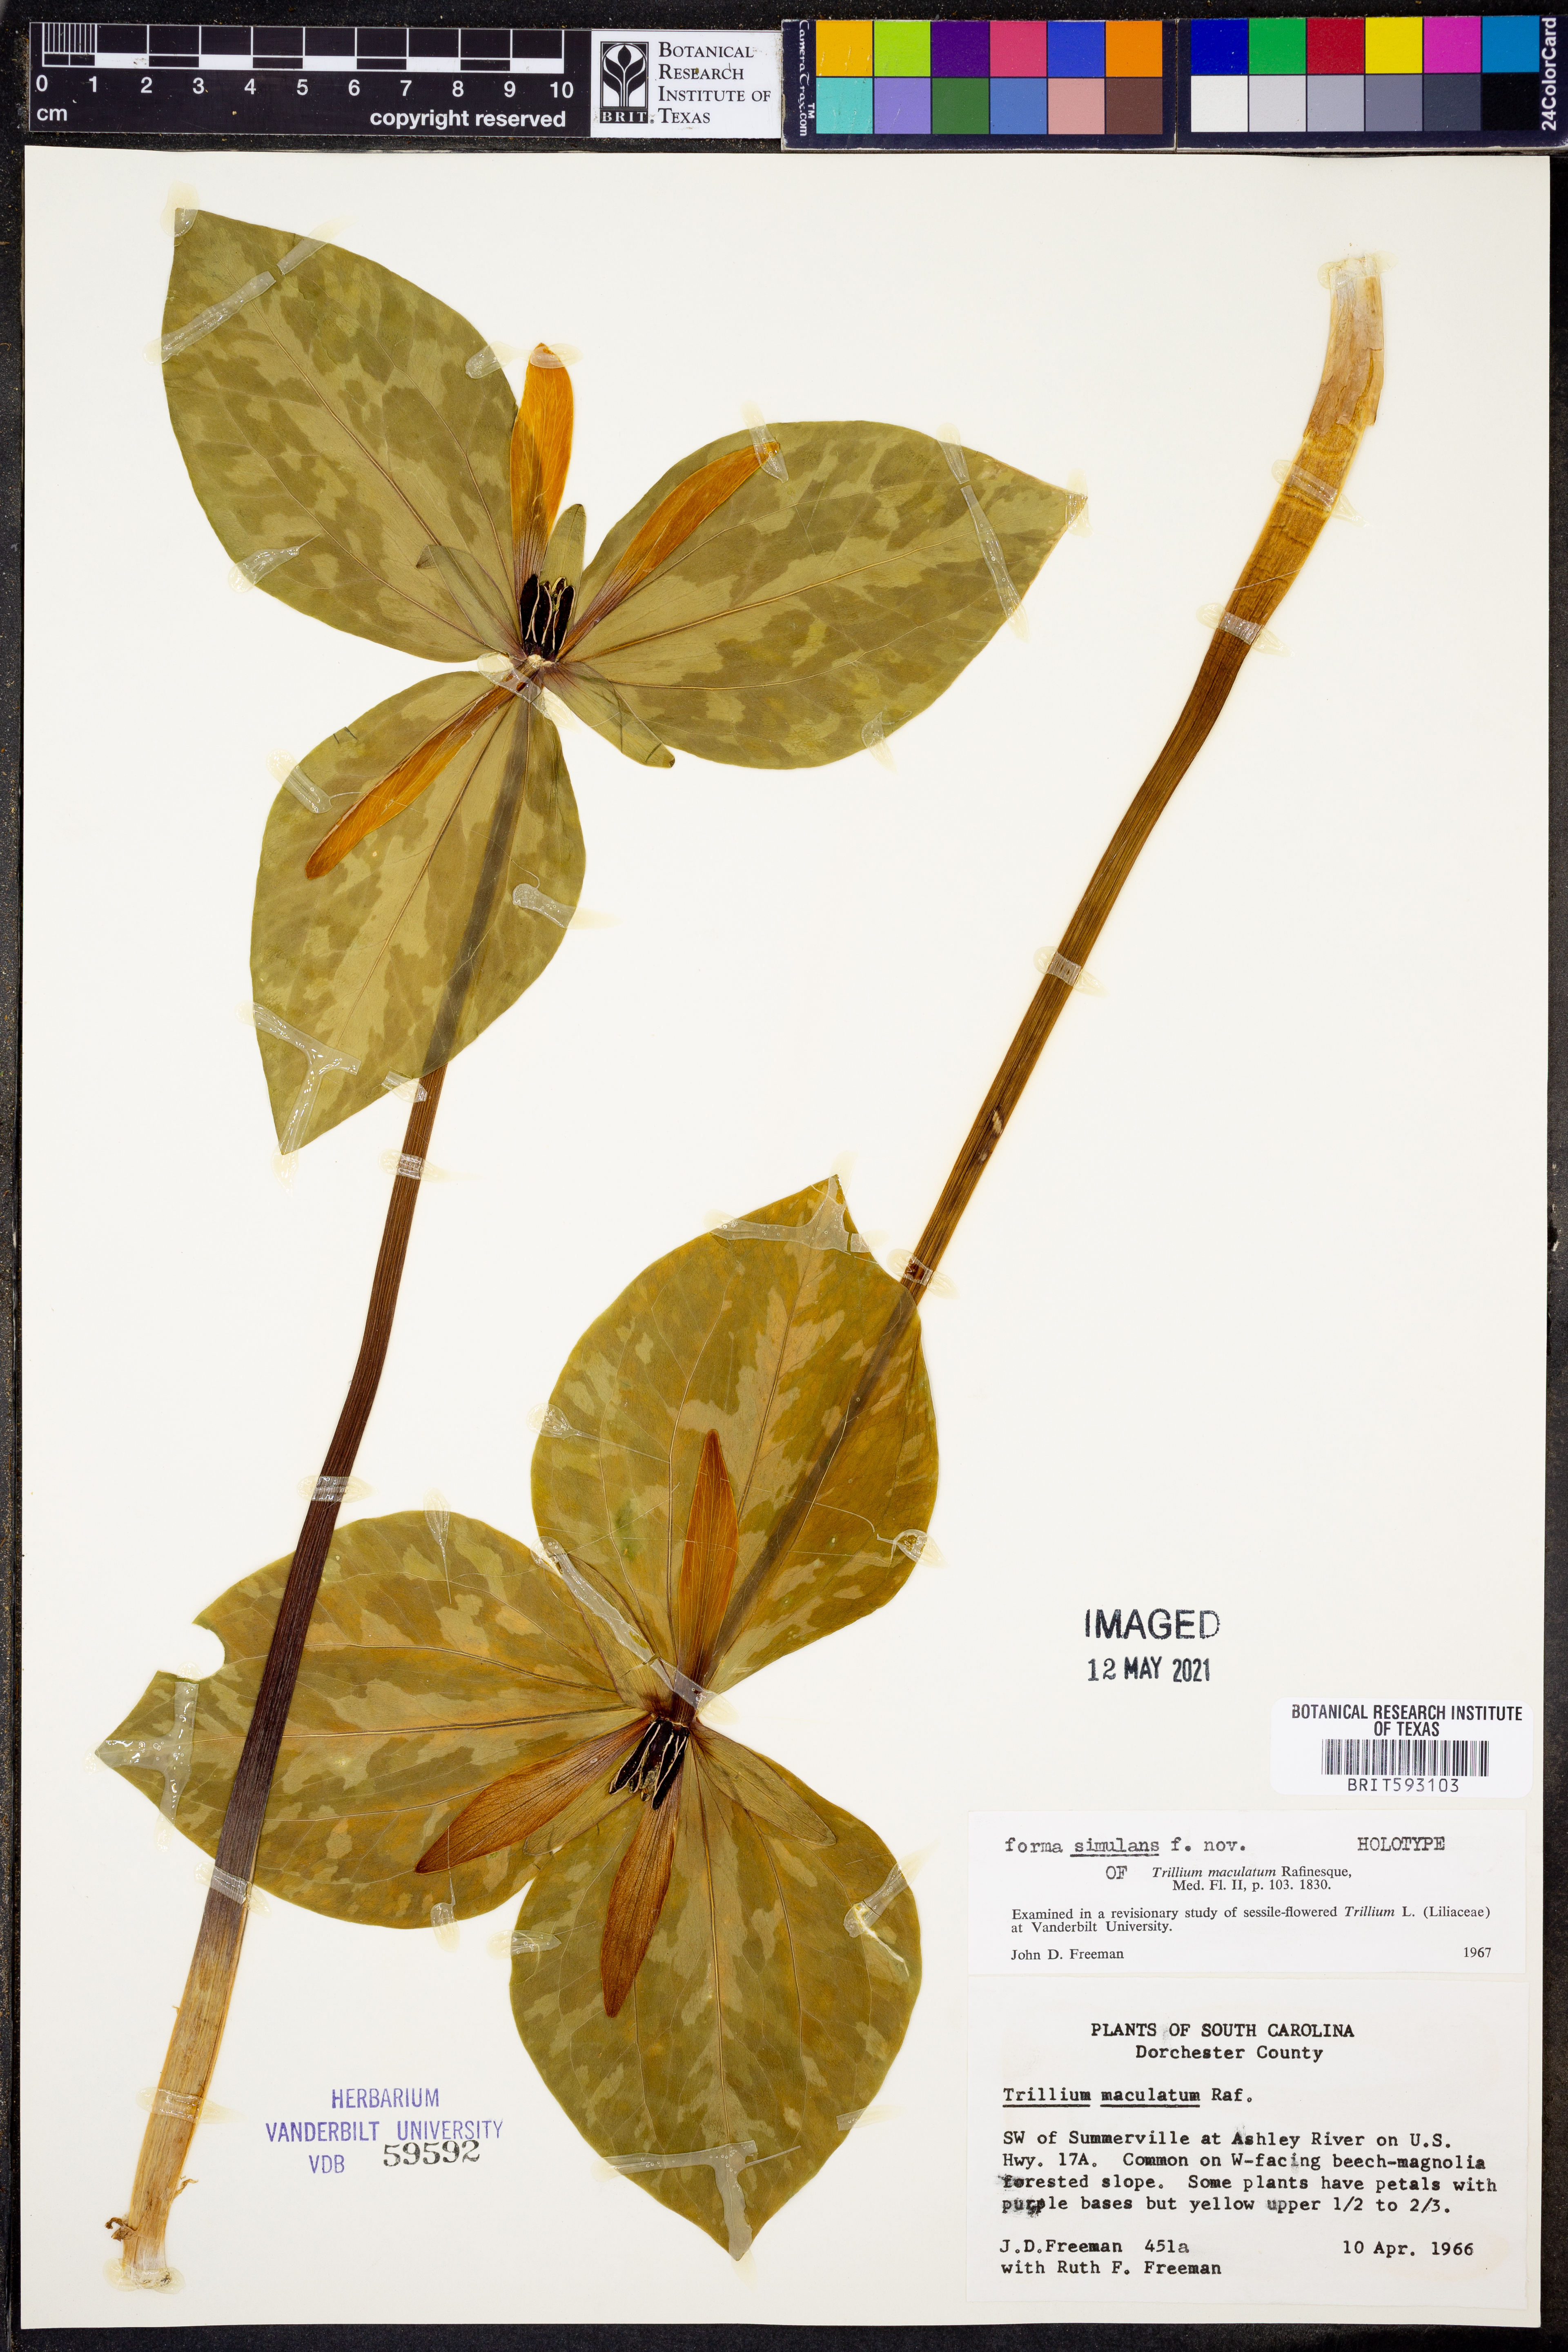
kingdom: Plantae
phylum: Tracheophyta
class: Liliopsida
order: Liliales
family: Melanthiaceae
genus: Trillium
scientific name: Trillium maculatum
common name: Mottled trillium
